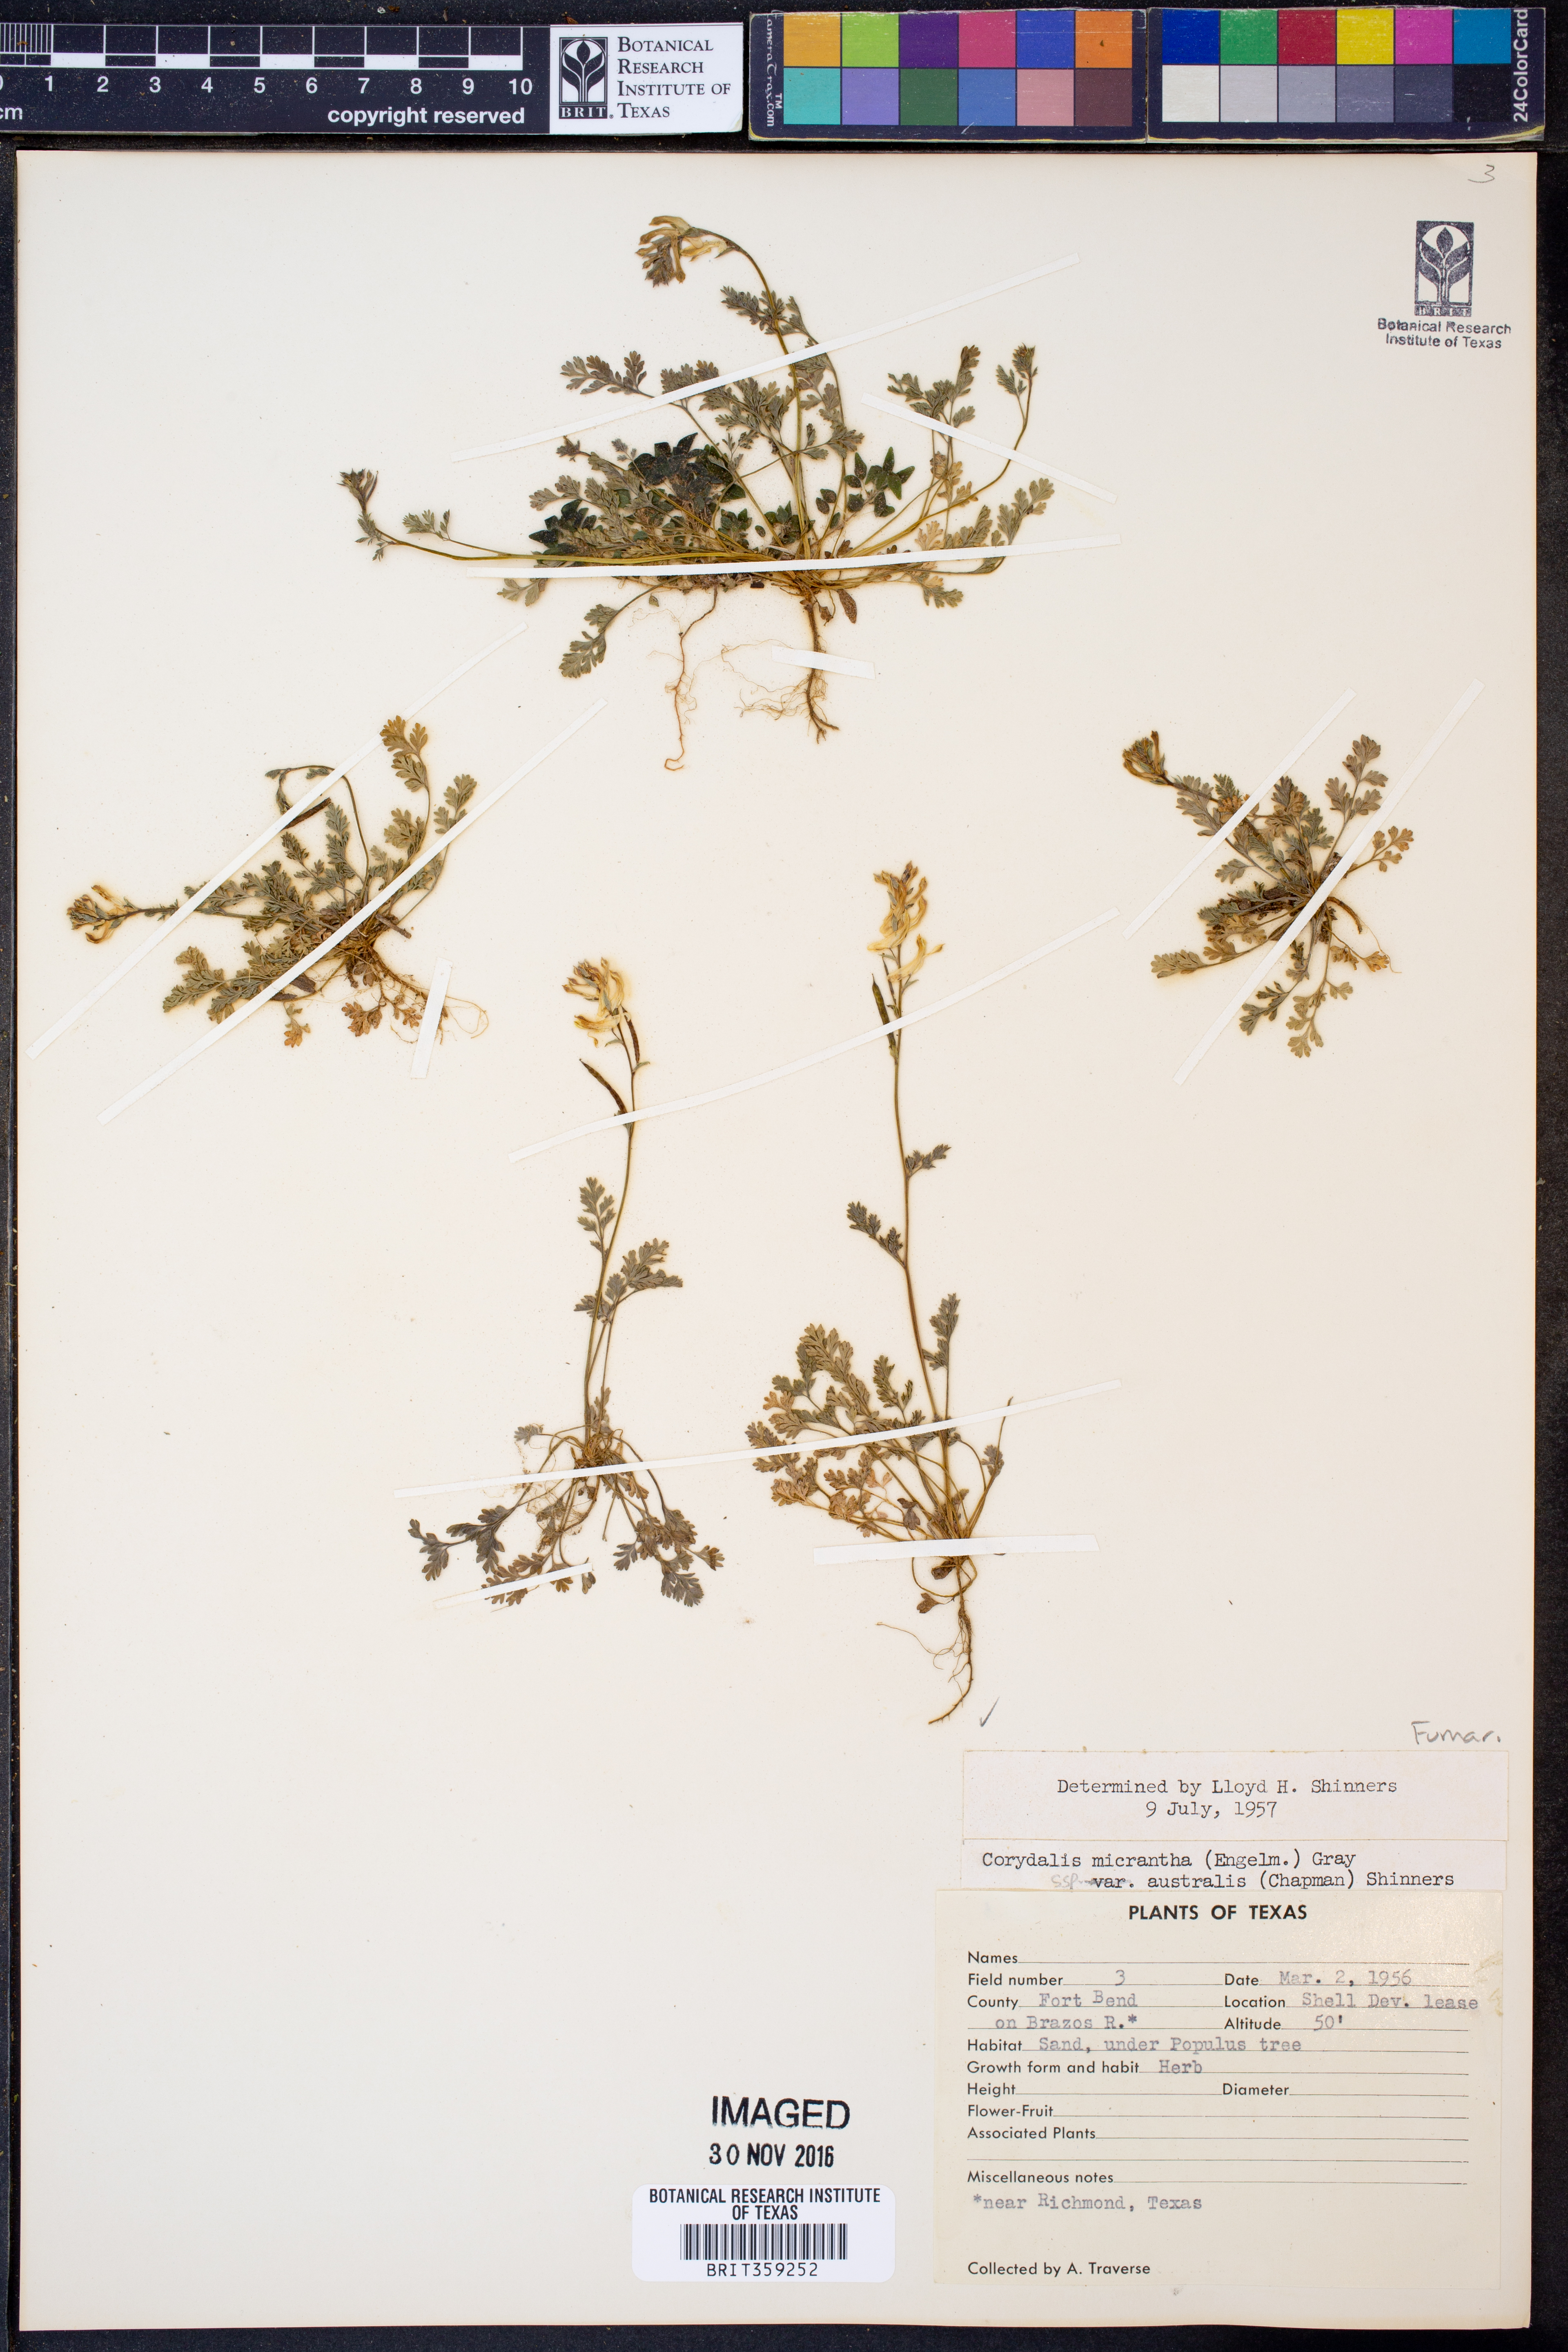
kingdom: Plantae
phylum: Tracheophyta
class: Magnoliopsida
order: Ranunculales
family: Papaveraceae
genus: Corydalis
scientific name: Corydalis micrantha
